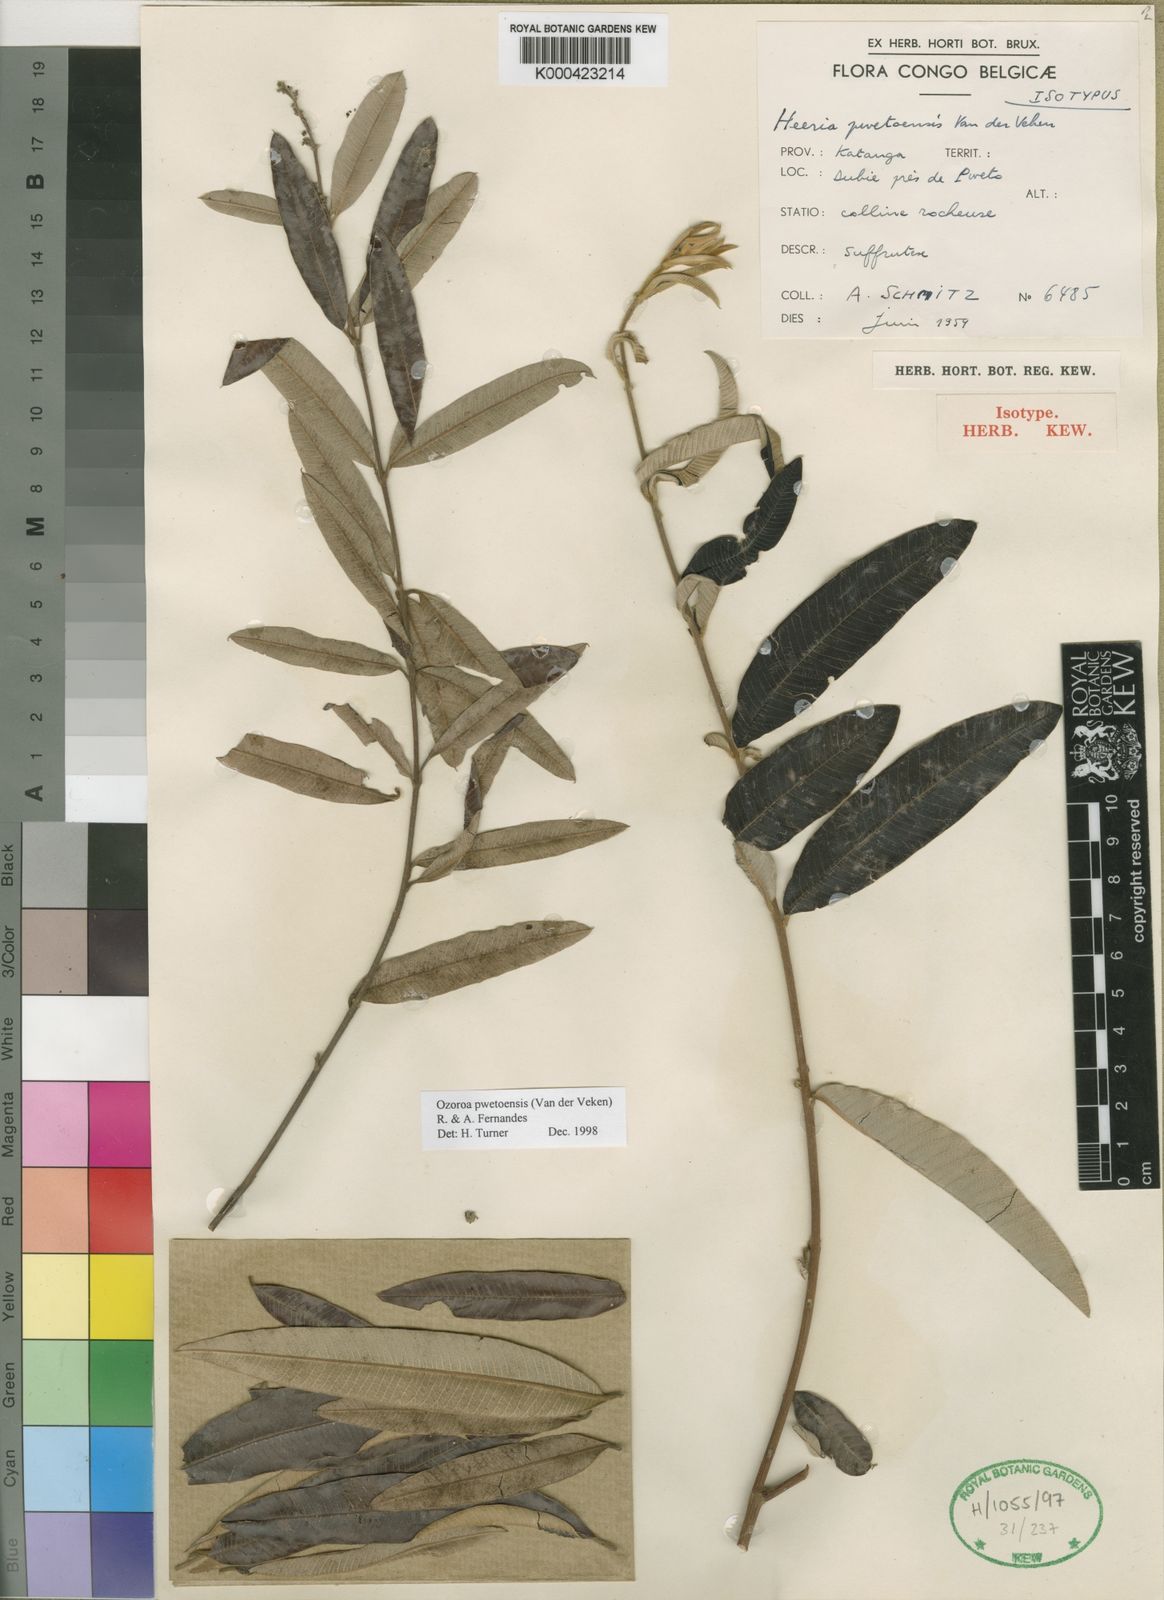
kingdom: Plantae
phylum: Tracheophyta
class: Magnoliopsida
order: Sapindales
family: Anacardiaceae
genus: Ozoroa
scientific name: Ozoroa pwetoensis
